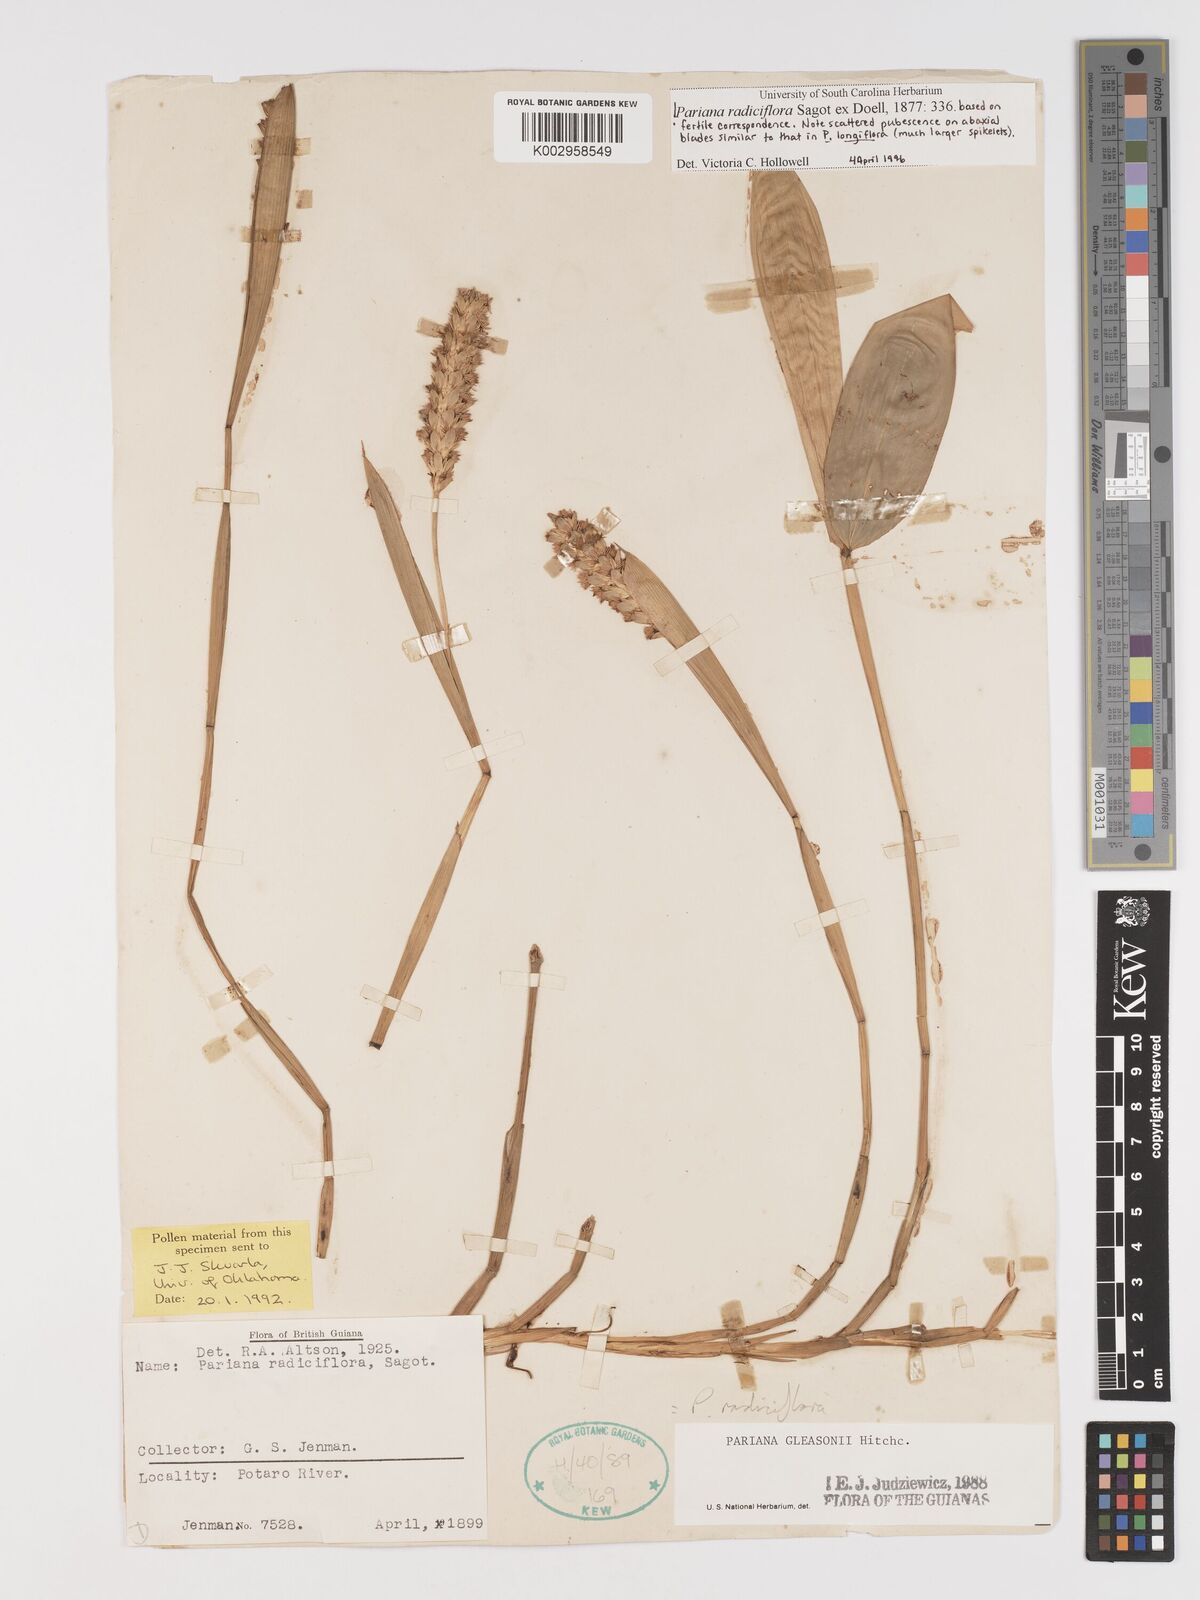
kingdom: Plantae
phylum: Tracheophyta
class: Liliopsida
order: Poales
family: Poaceae
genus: Pariana
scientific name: Pariana radiciflora
